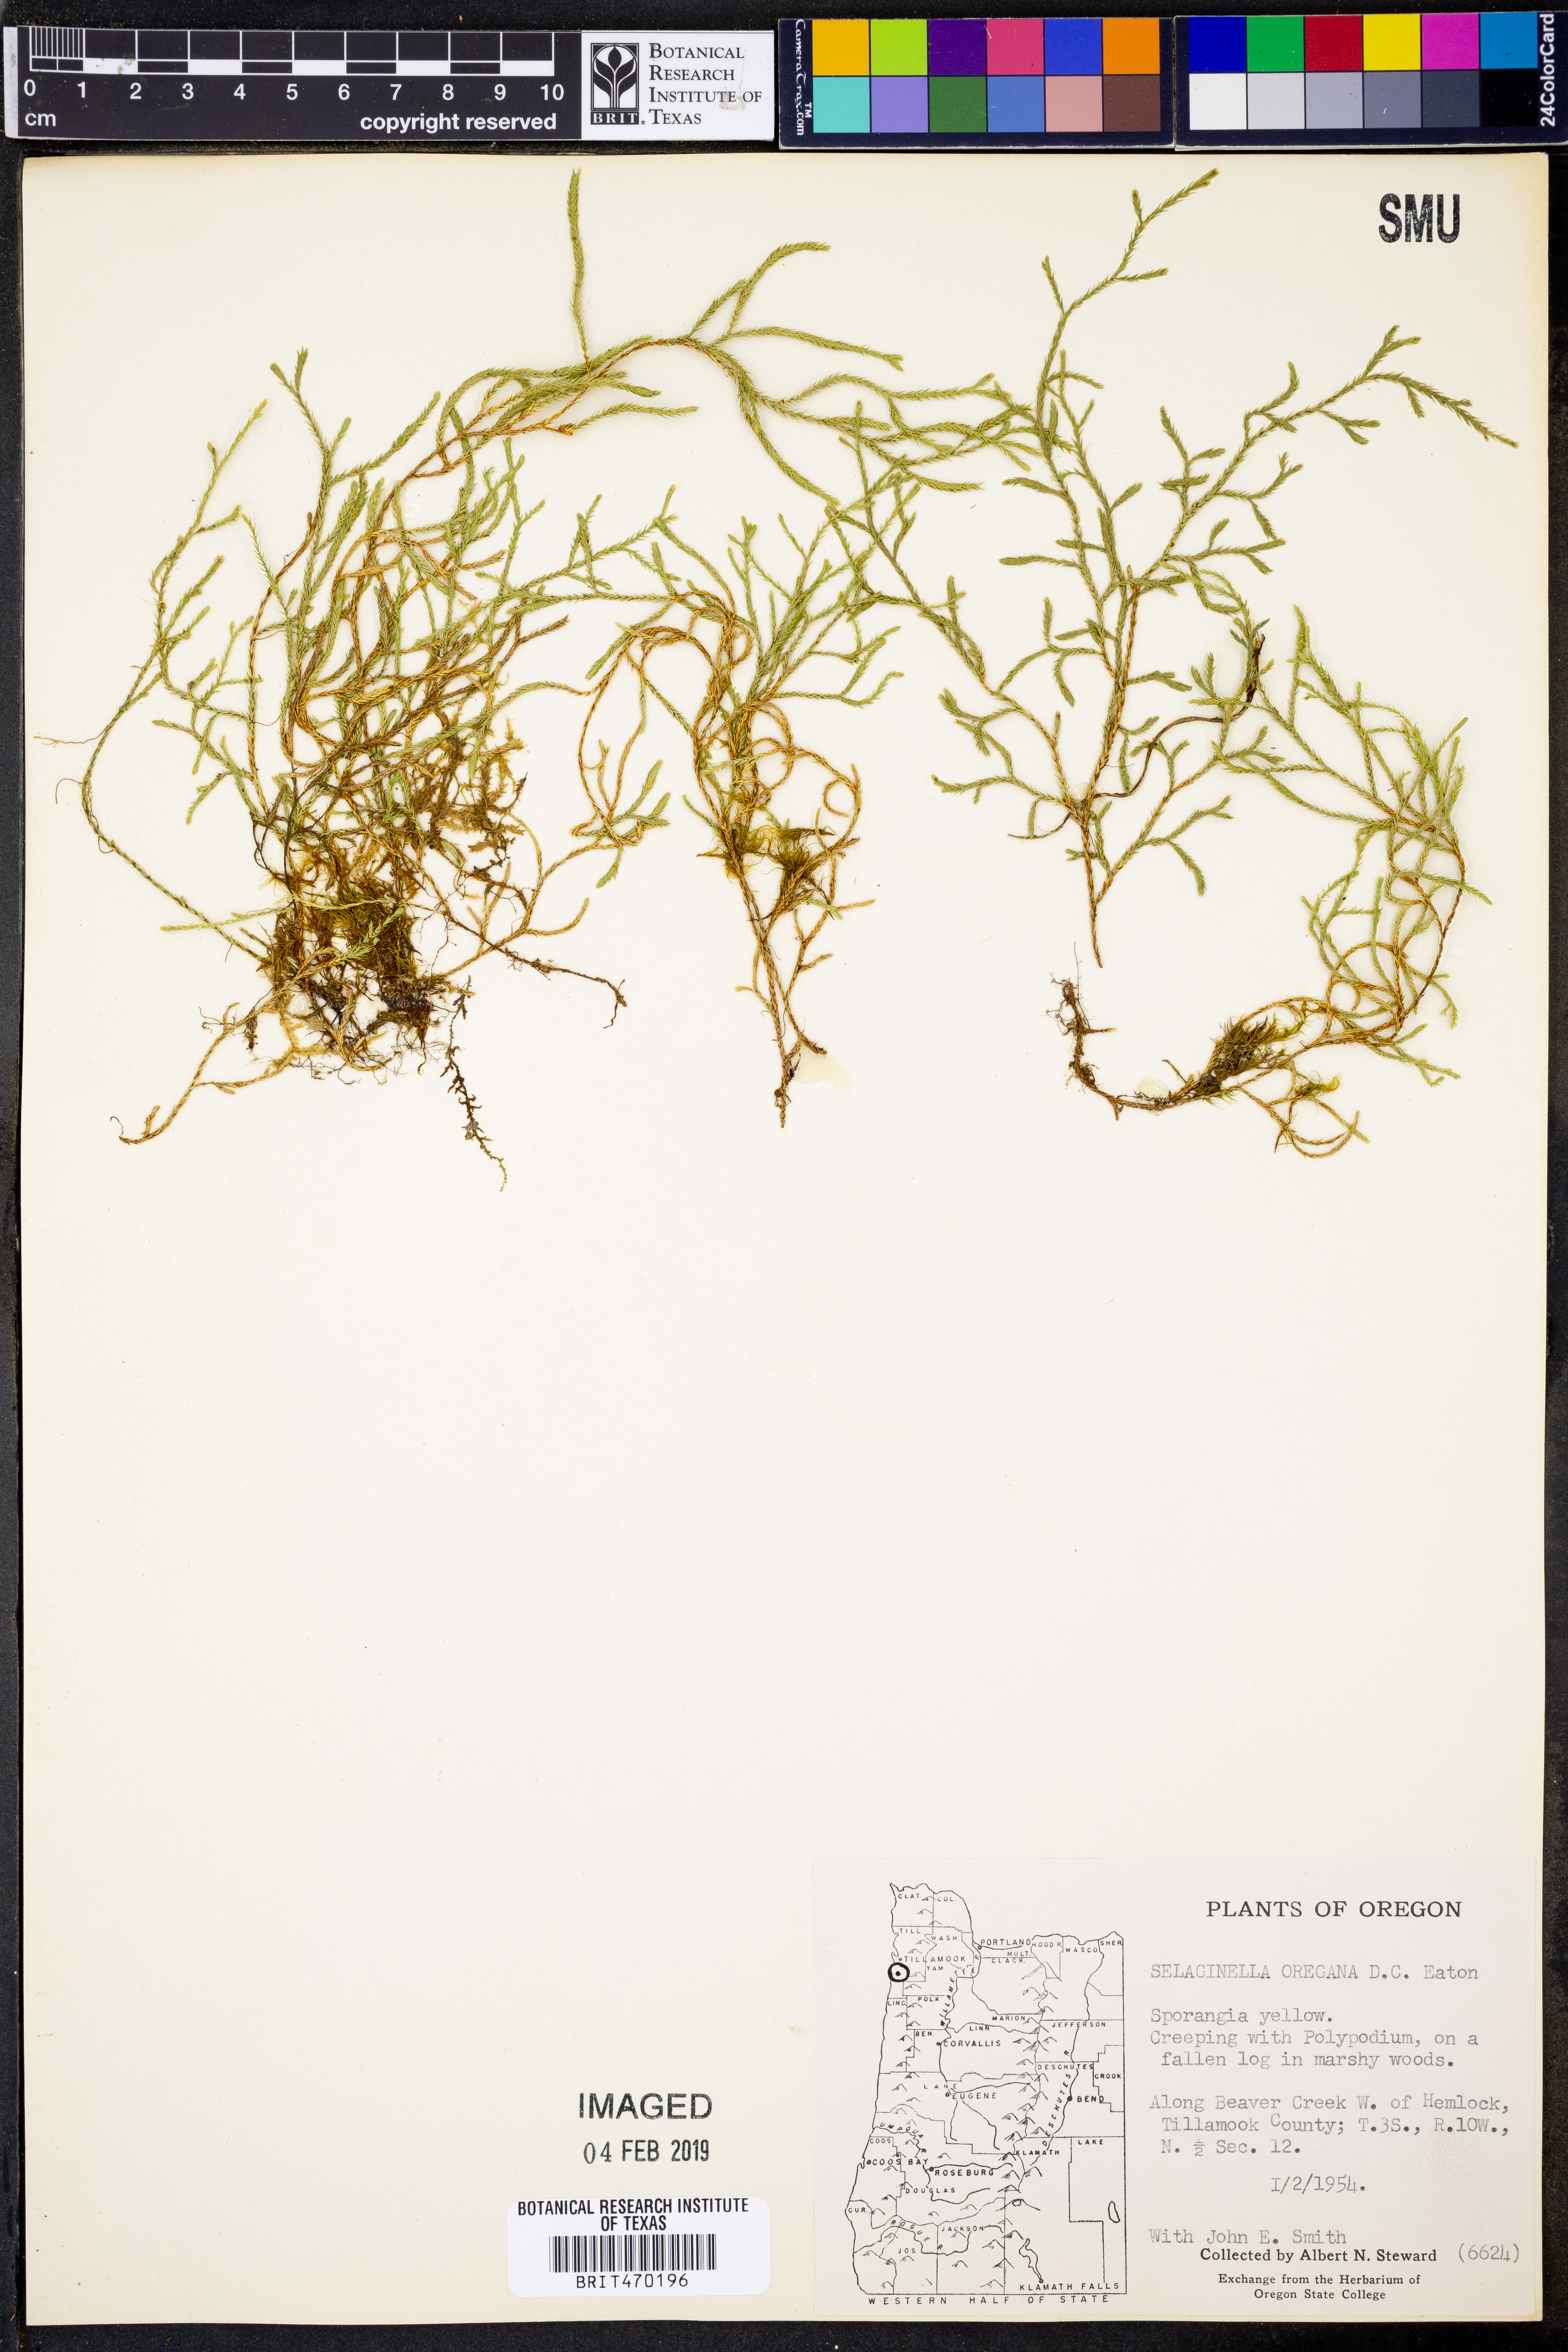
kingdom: Plantae
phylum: Tracheophyta
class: Lycopodiopsida
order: Selaginellales
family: Selaginellaceae
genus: Selaginella
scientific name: Selaginella oregana
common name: Oregon selaginella
